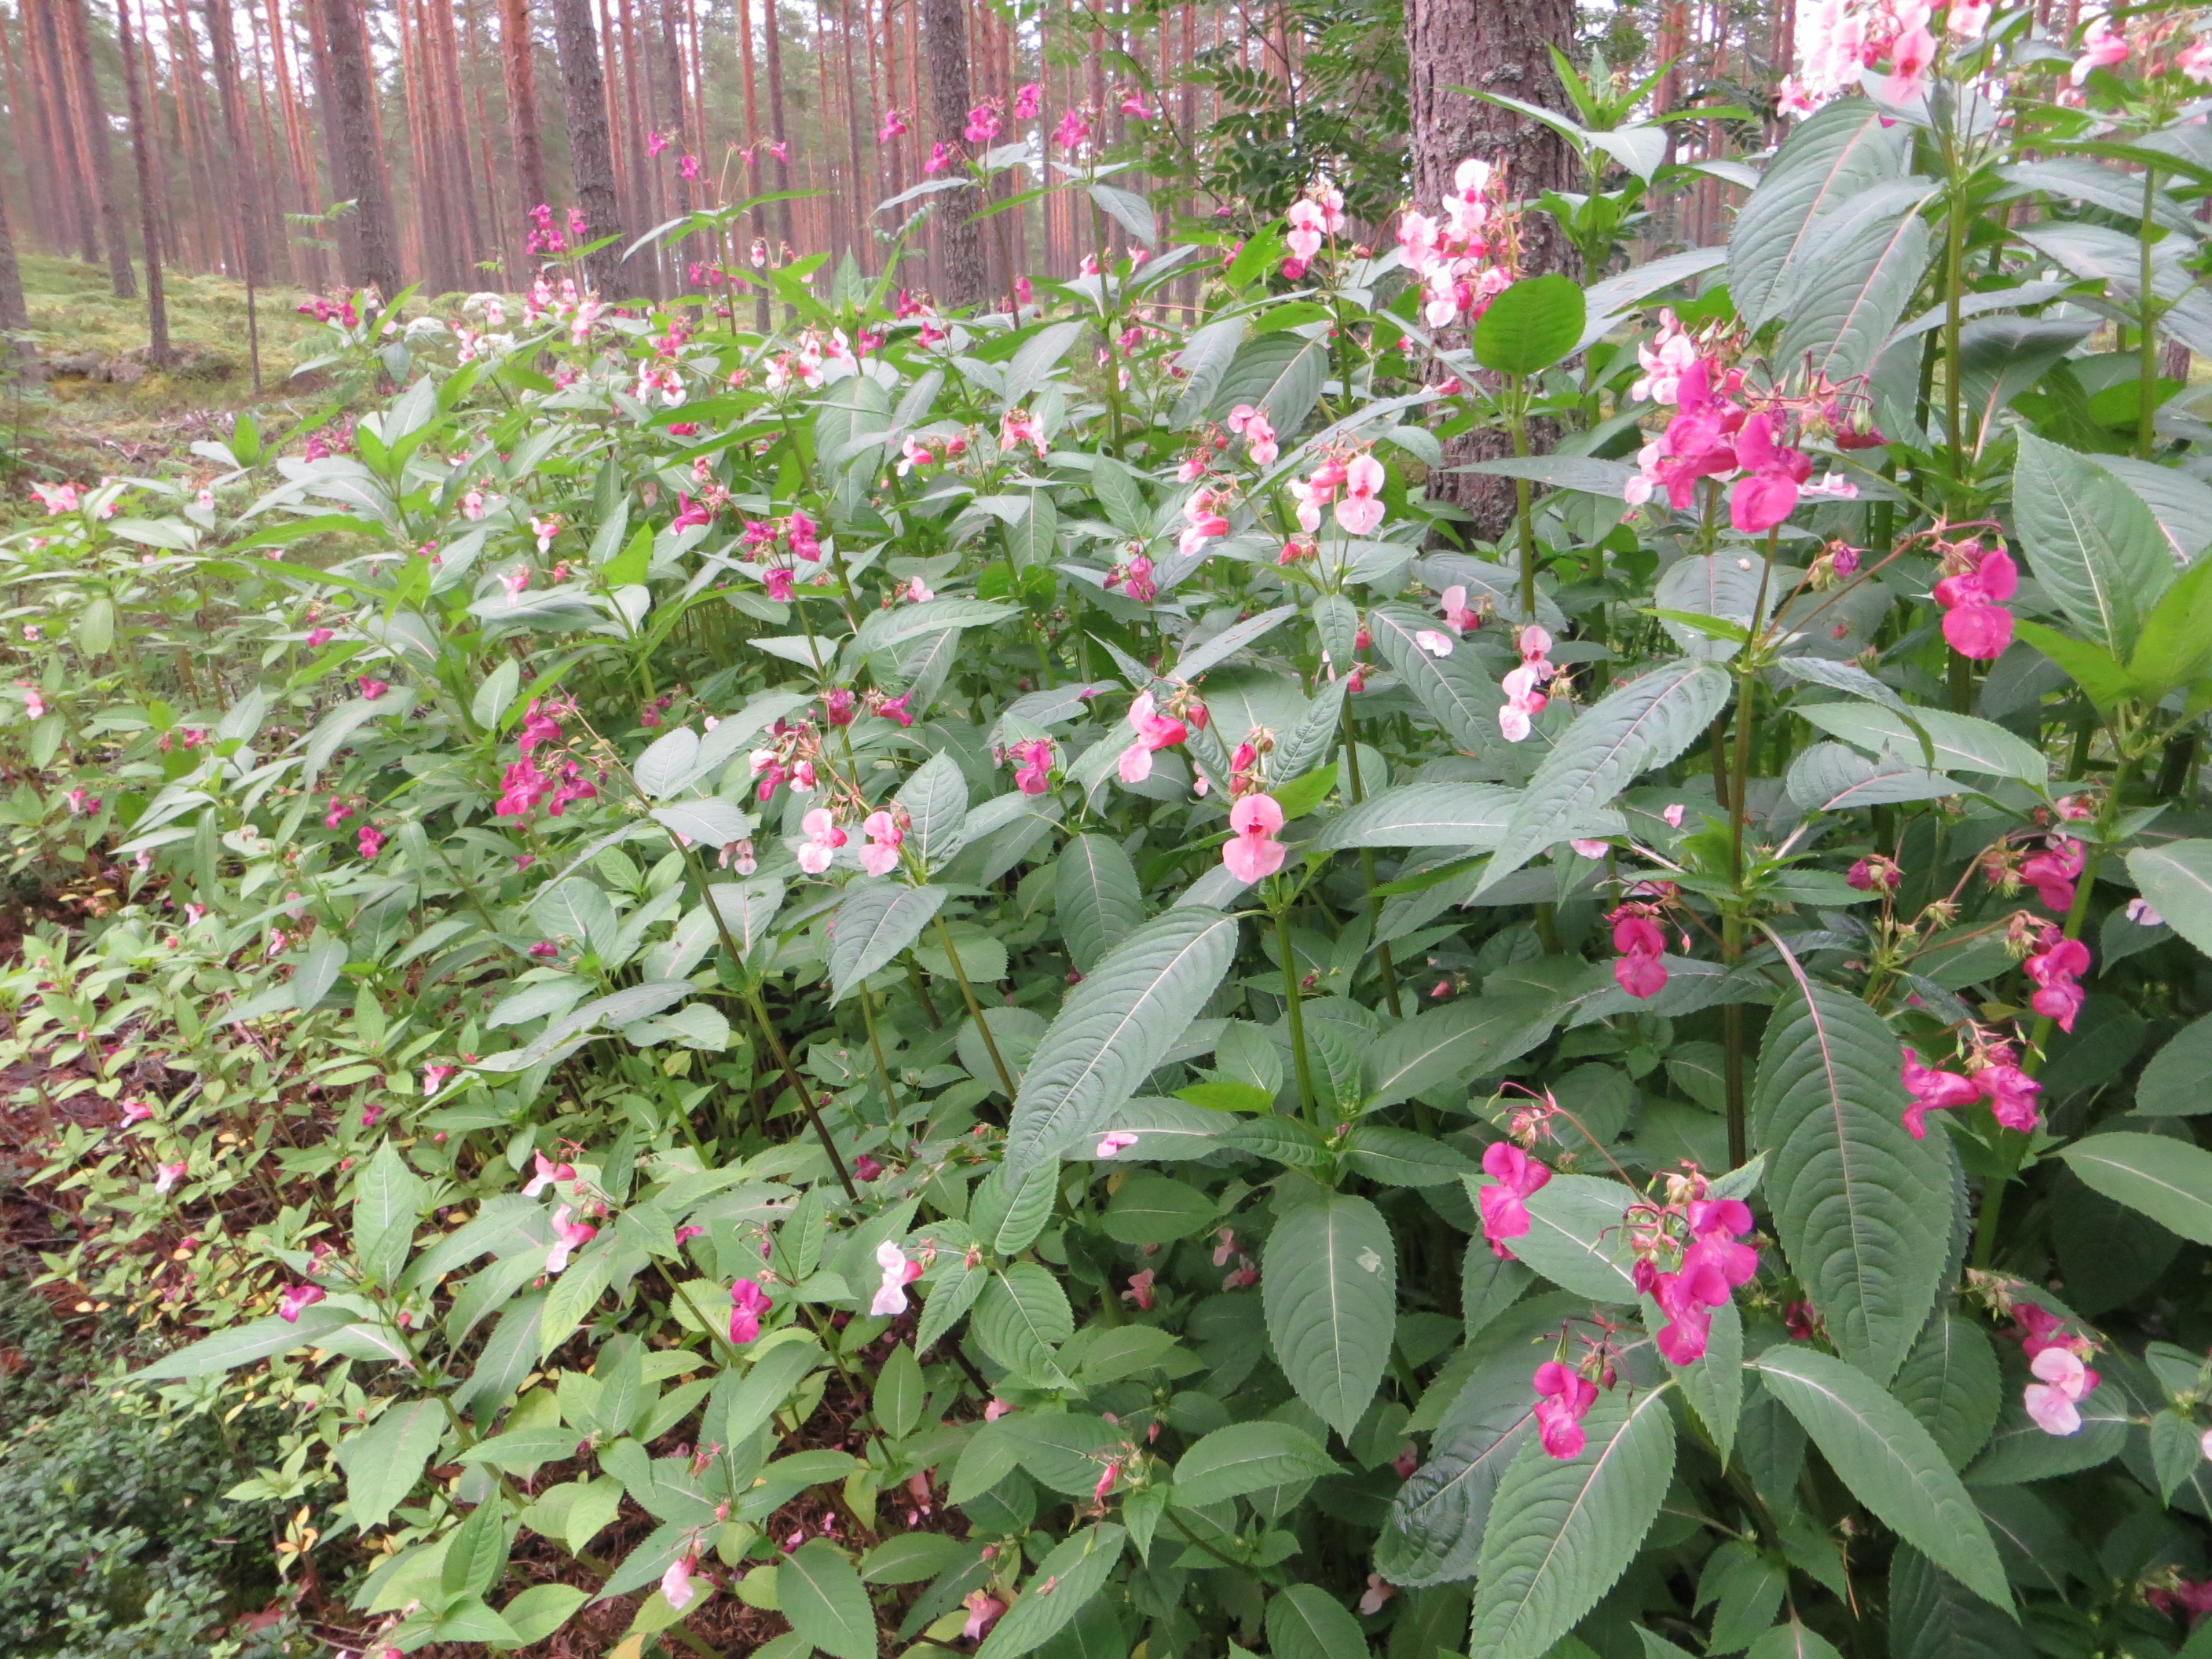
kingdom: Plantae
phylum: Tracheophyta
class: Magnoliopsida
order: Ericales
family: Balsaminaceae
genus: Impatiens
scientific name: Impatiens glandulifera
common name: Himalayan balsam
